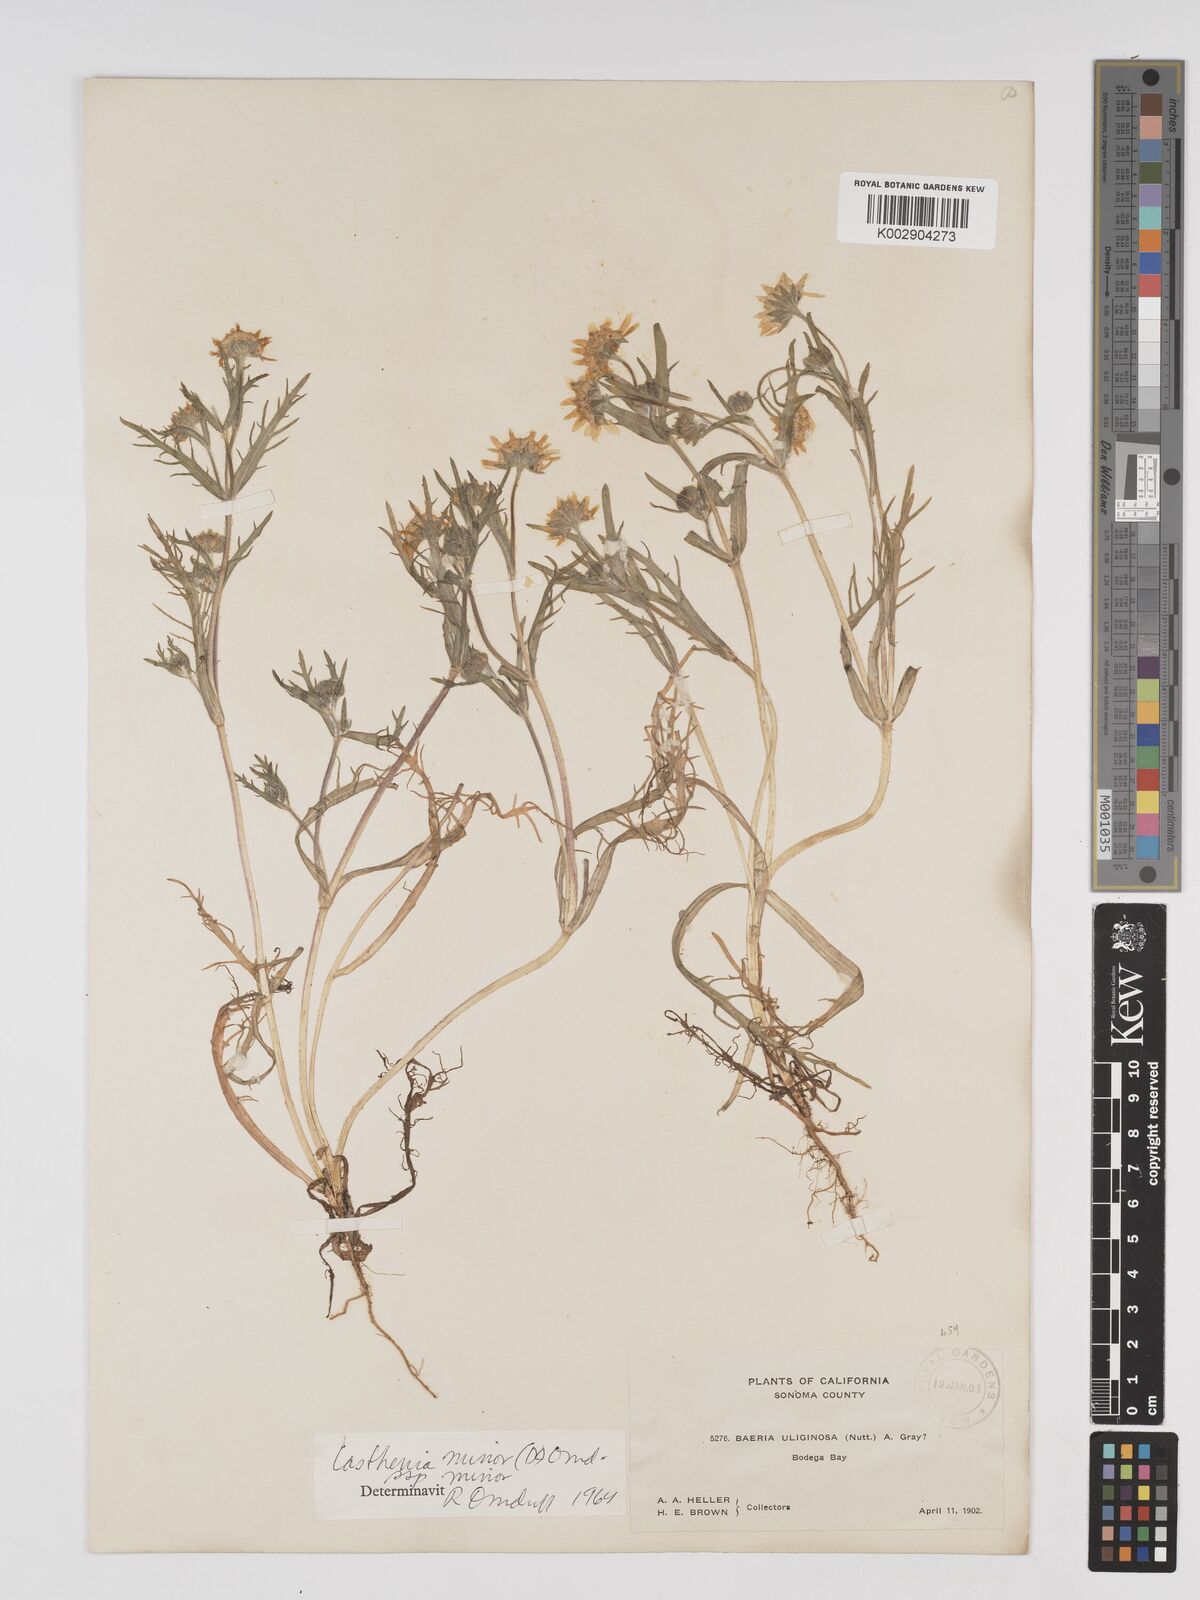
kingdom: Plantae
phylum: Tracheophyta
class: Magnoliopsida
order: Asterales
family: Asteraceae
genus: Lasthenia
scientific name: Lasthenia minor
